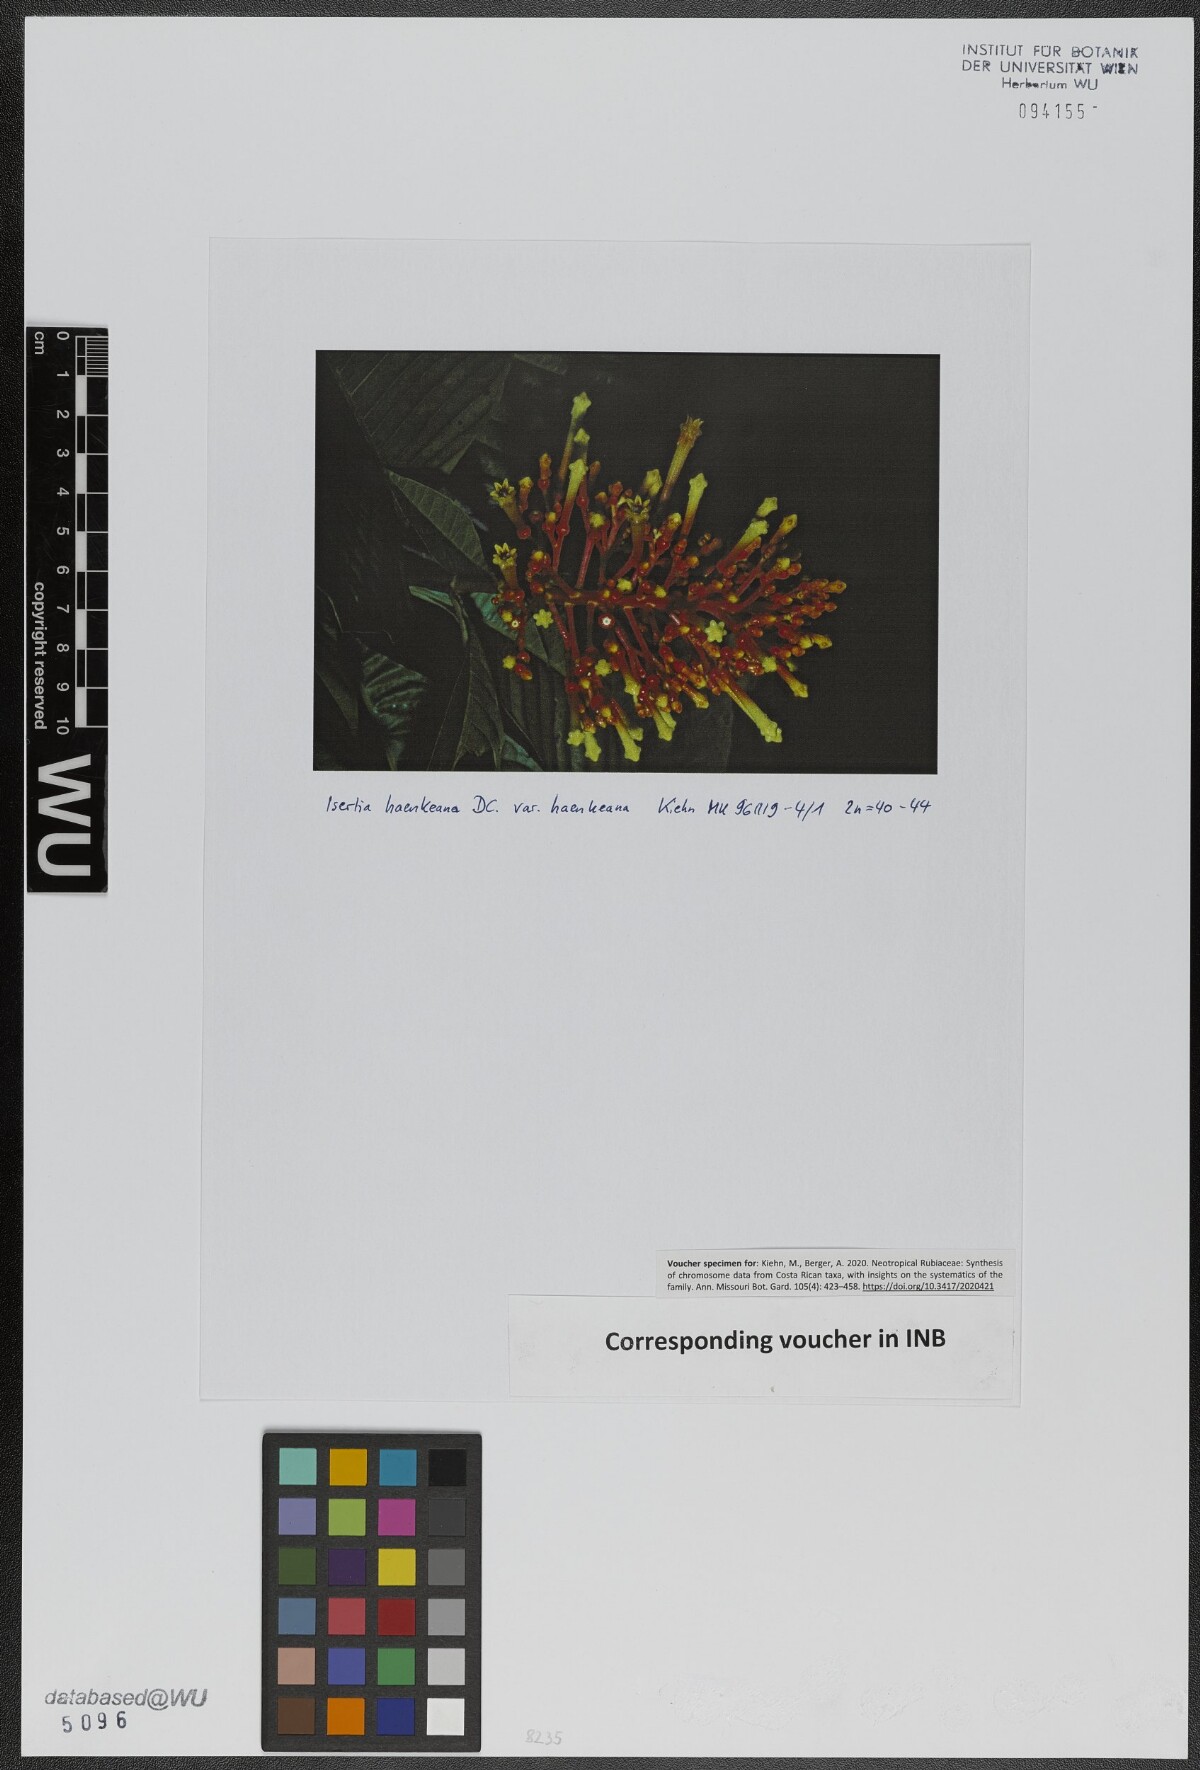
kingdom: Plantae
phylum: Tracheophyta
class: Magnoliopsida
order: Gentianales
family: Rubiaceae
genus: Isertia
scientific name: Isertia haenkeana
